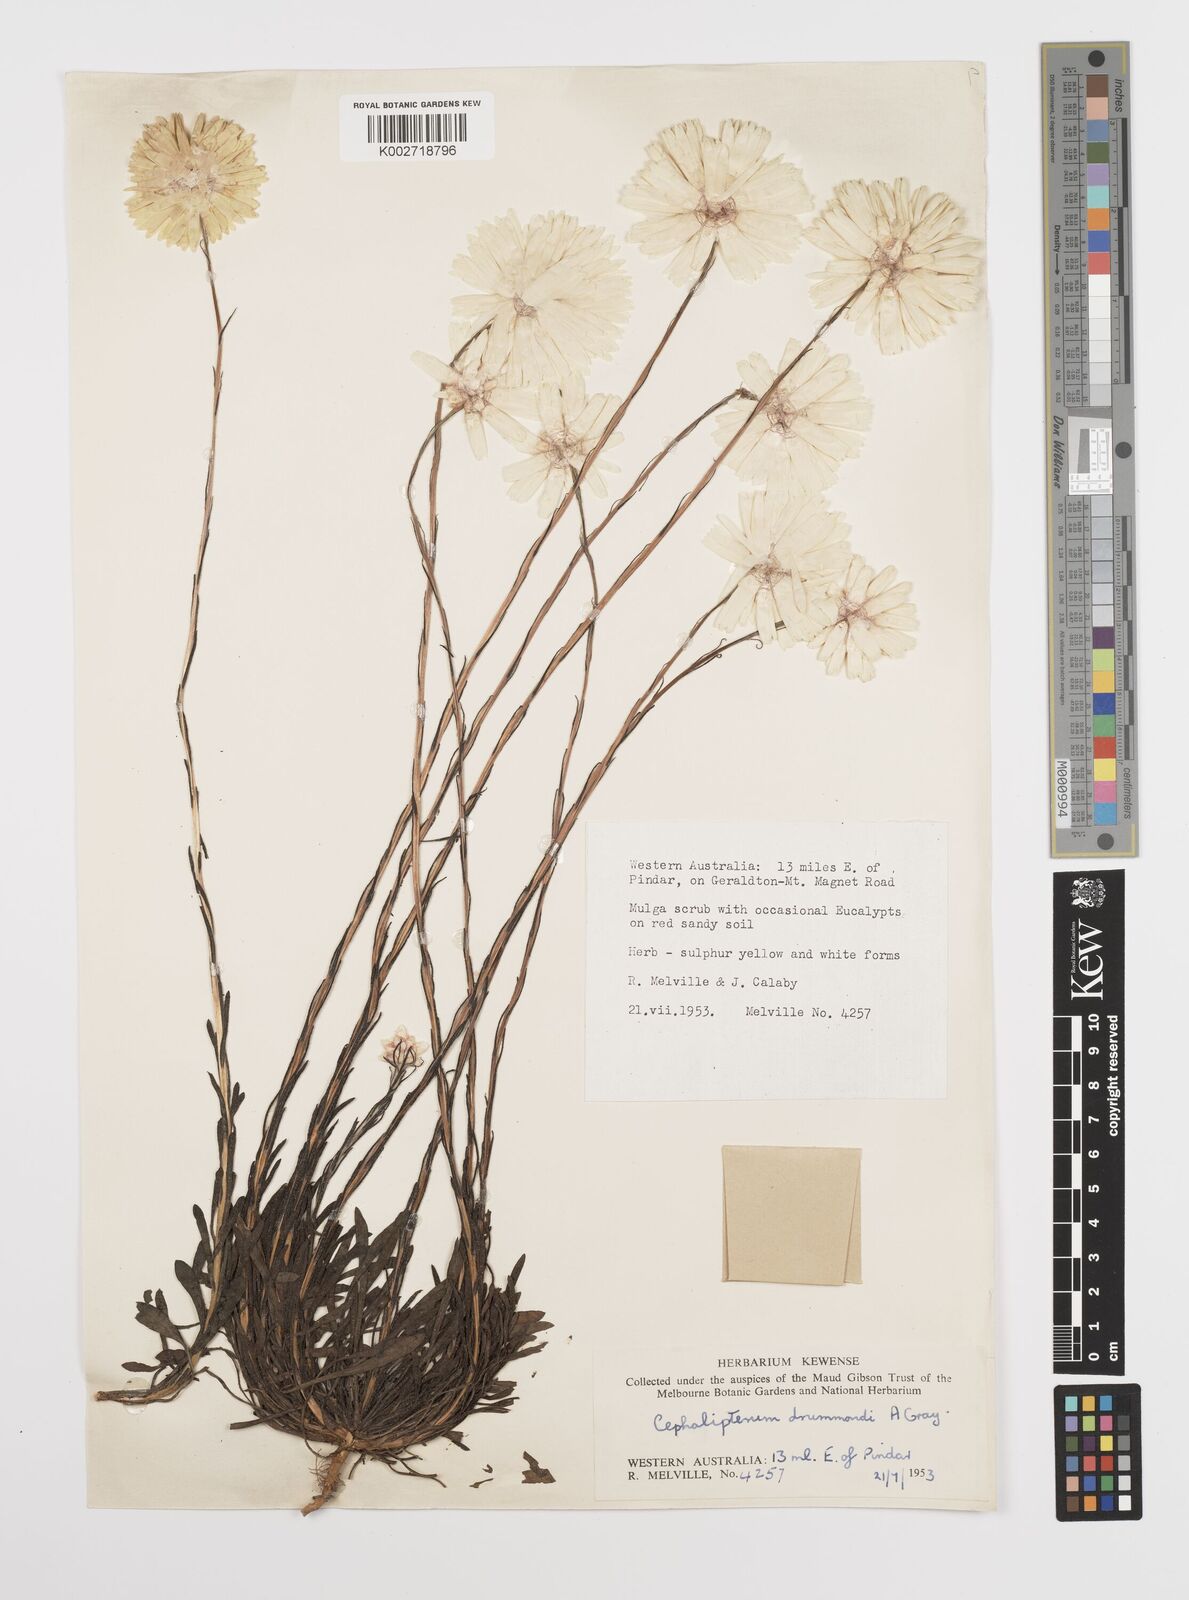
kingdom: Plantae
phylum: Tracheophyta
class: Magnoliopsida
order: Asterales
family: Asteraceae
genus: Cephalipterum
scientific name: Cephalipterum drummondii
